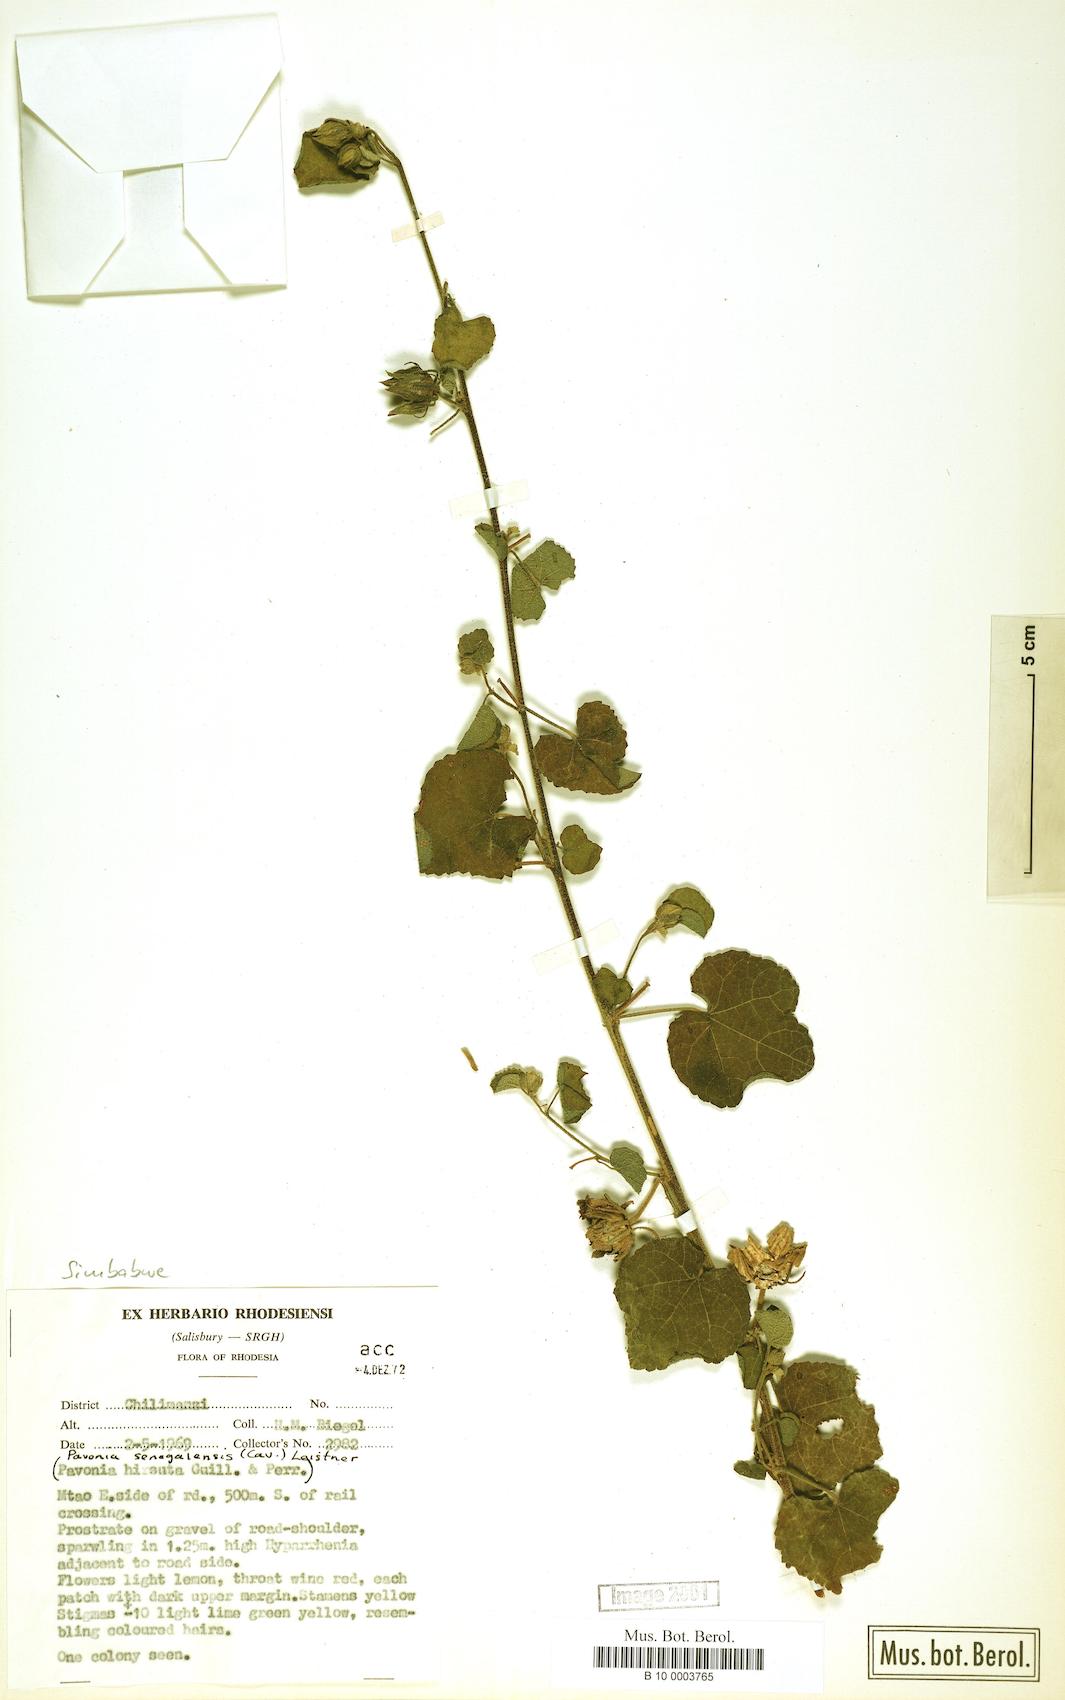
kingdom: Plantae
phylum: Tracheophyta
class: Magnoliopsida
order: Malvales
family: Malvaceae
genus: Pavonia
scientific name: Pavonia senegalensis
